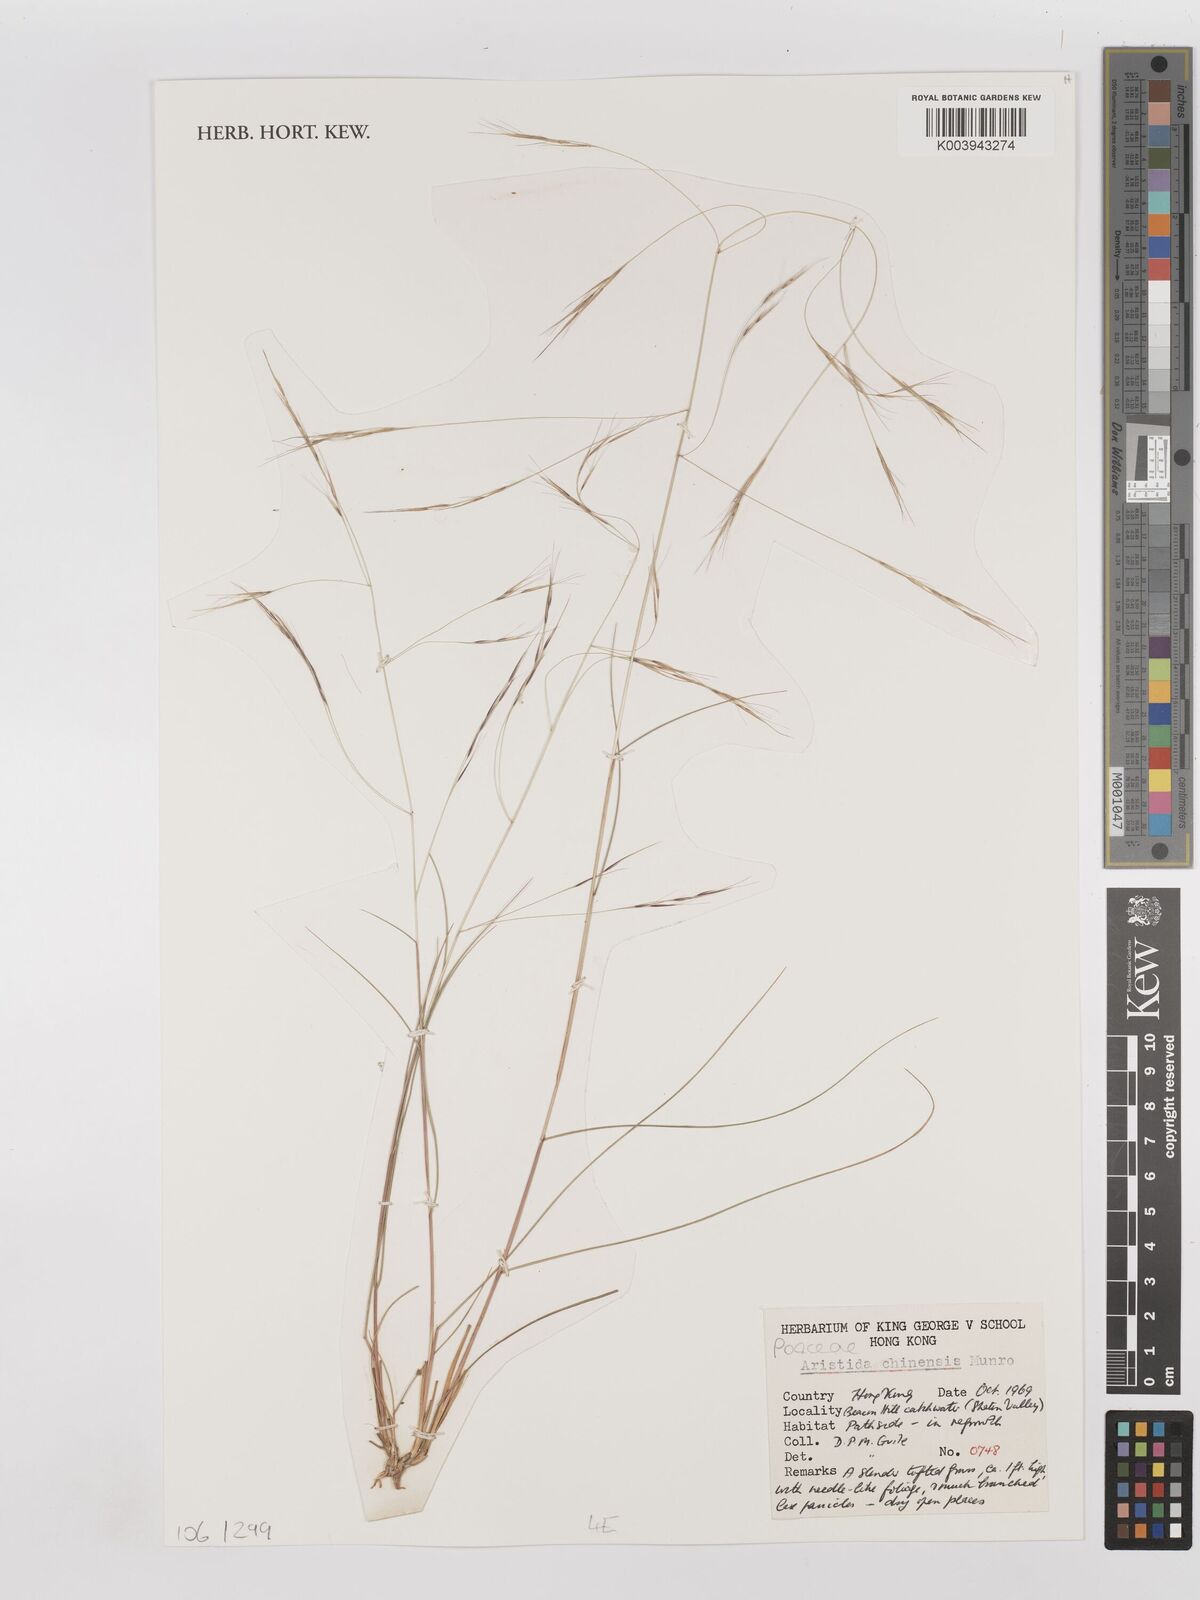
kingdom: Plantae
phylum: Tracheophyta
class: Liliopsida
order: Poales
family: Poaceae
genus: Aristida
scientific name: Aristida chinensis
